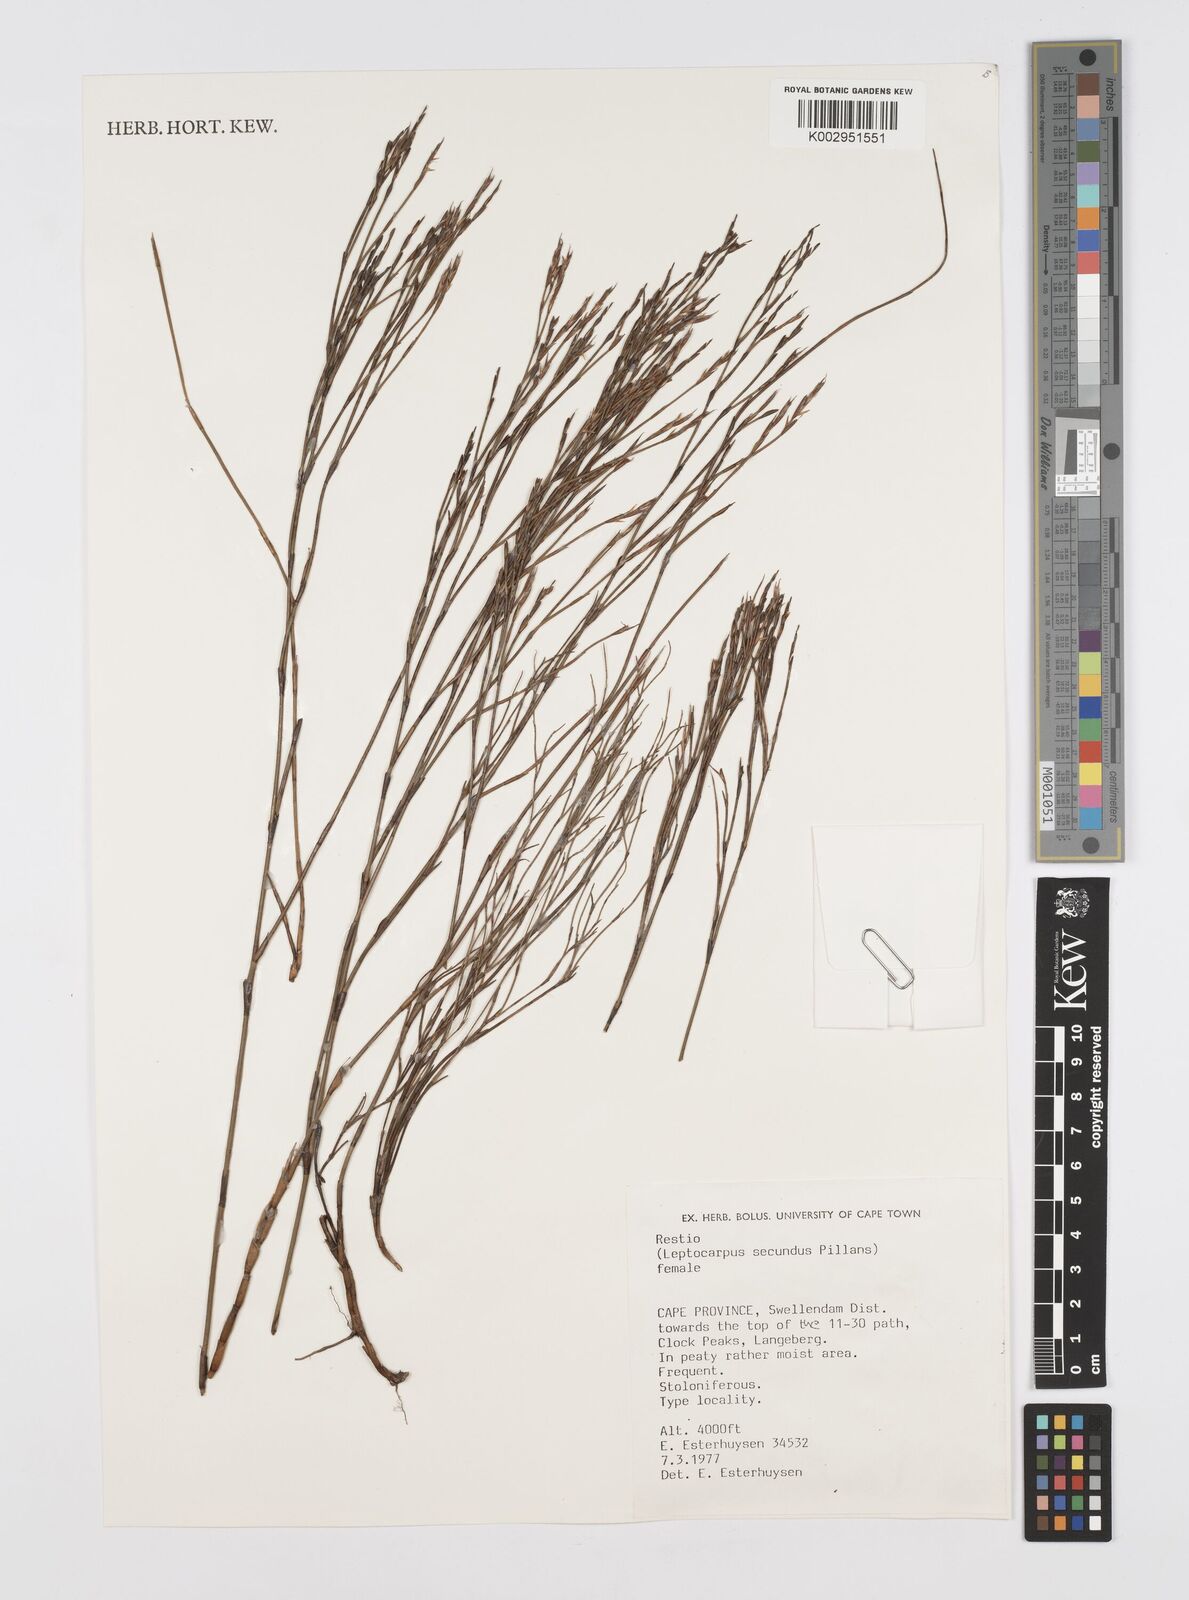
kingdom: Plantae
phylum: Tracheophyta
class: Liliopsida
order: Poales
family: Restionaceae
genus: Restio
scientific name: Restio secundus
